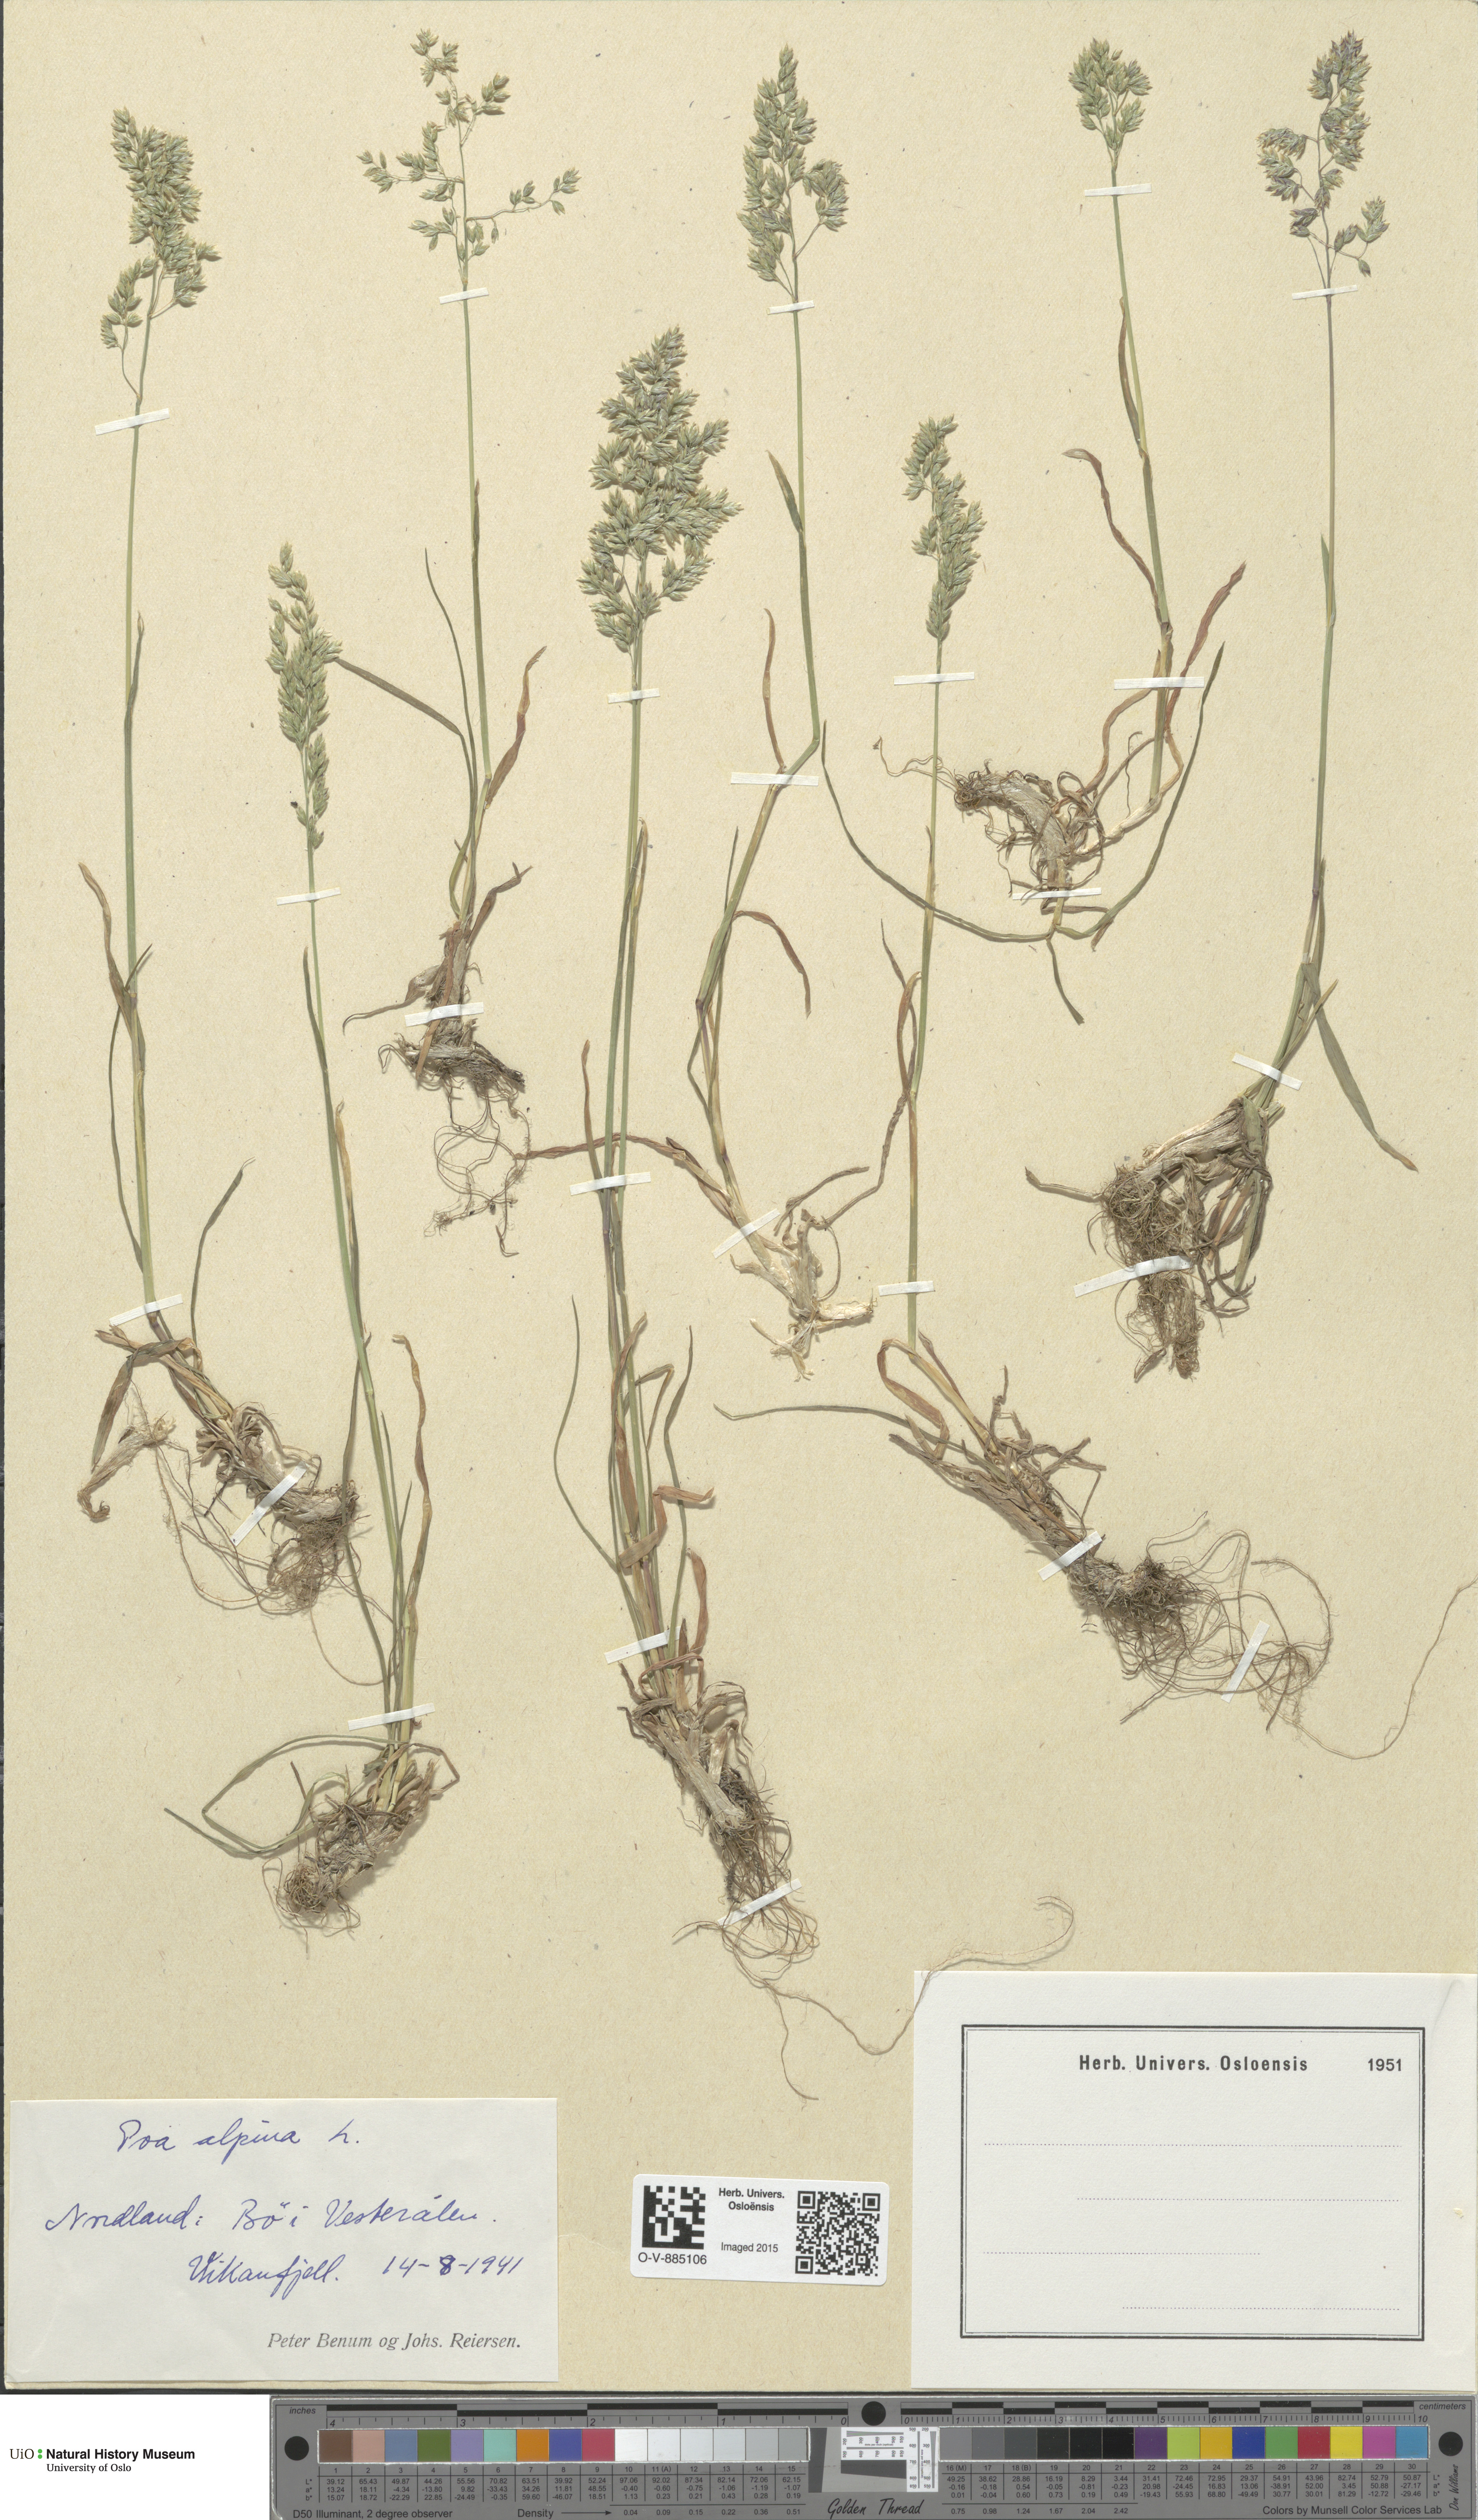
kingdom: Plantae
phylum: Tracheophyta
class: Liliopsida
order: Poales
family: Poaceae
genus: Poa
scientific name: Poa alpina
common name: Alpine bluegrass
